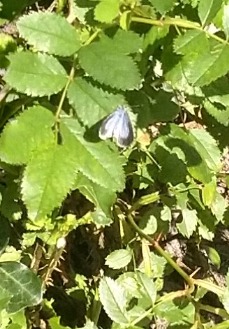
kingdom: Animalia
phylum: Arthropoda
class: Insecta
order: Lepidoptera
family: Lycaenidae
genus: Celastrina
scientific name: Celastrina argiolus
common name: Skovblåfugl
